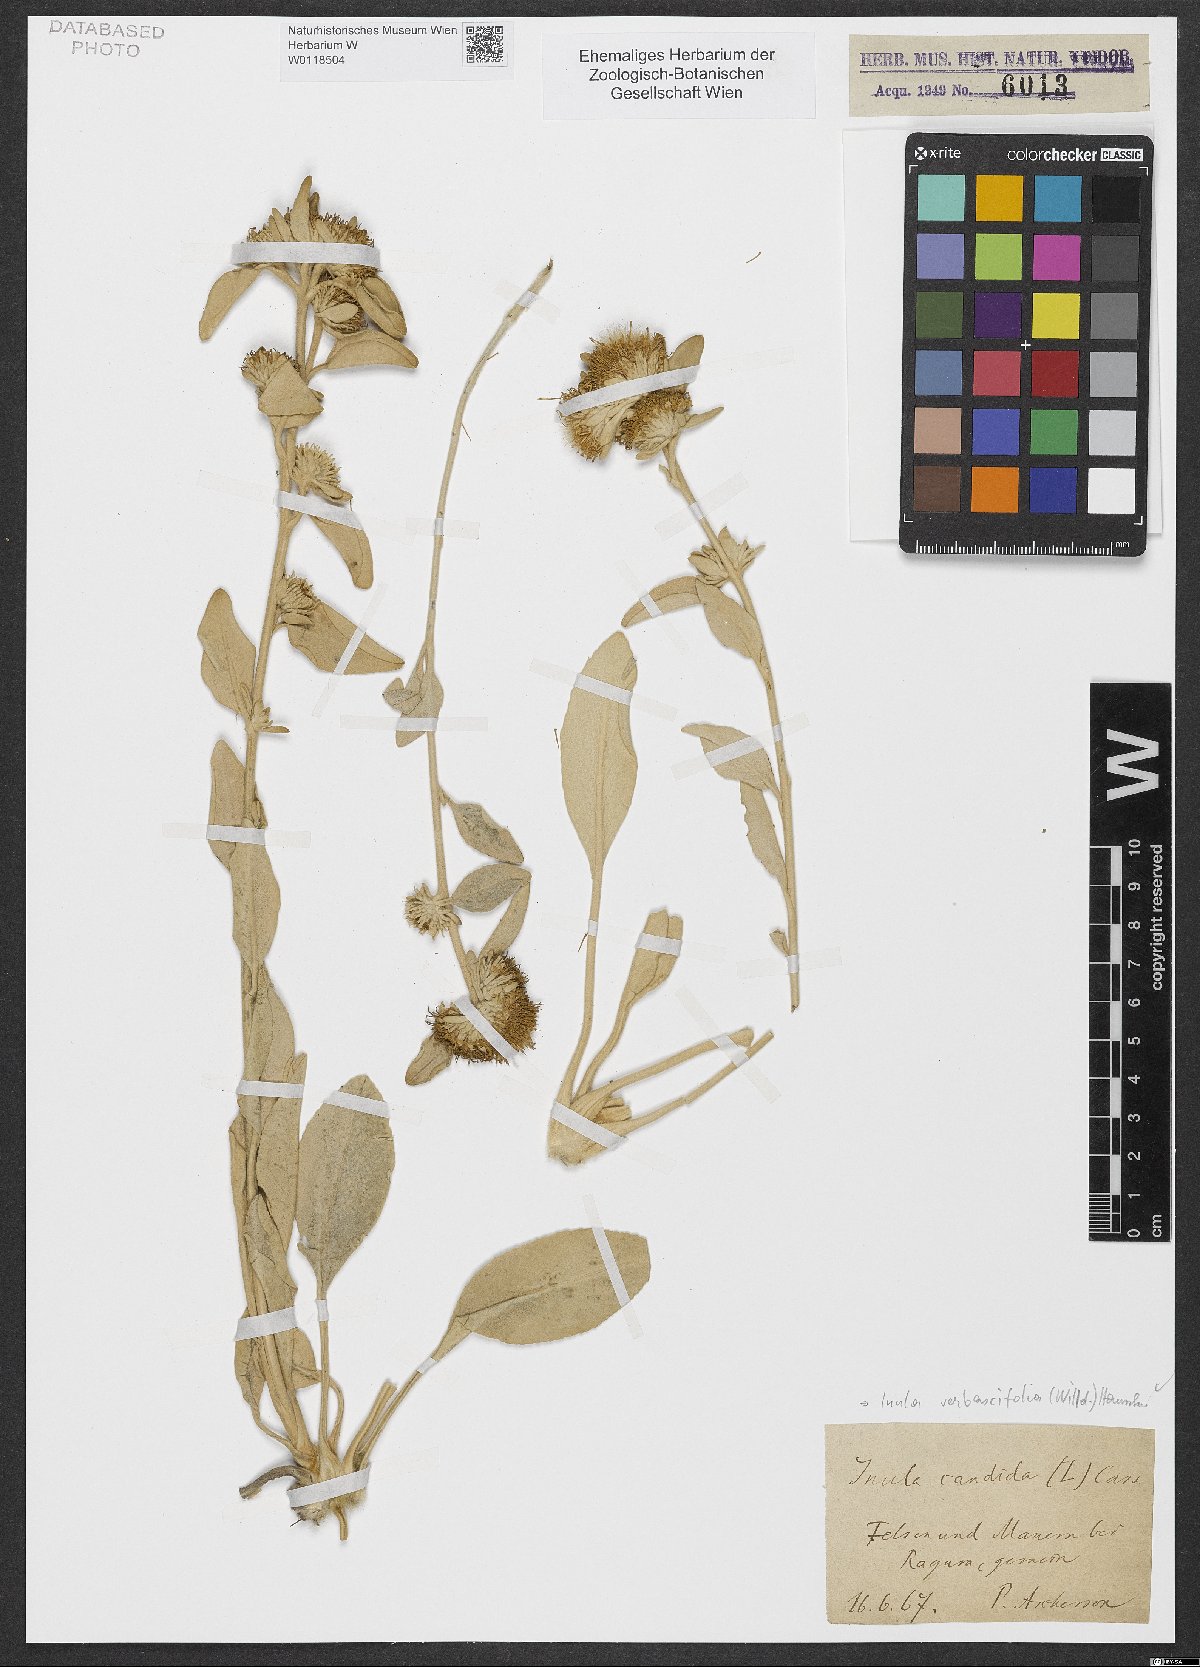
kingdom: Plantae
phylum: Tracheophyta
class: Magnoliopsida
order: Asterales
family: Asteraceae
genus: Pentanema
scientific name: Pentanema verbascifolium
